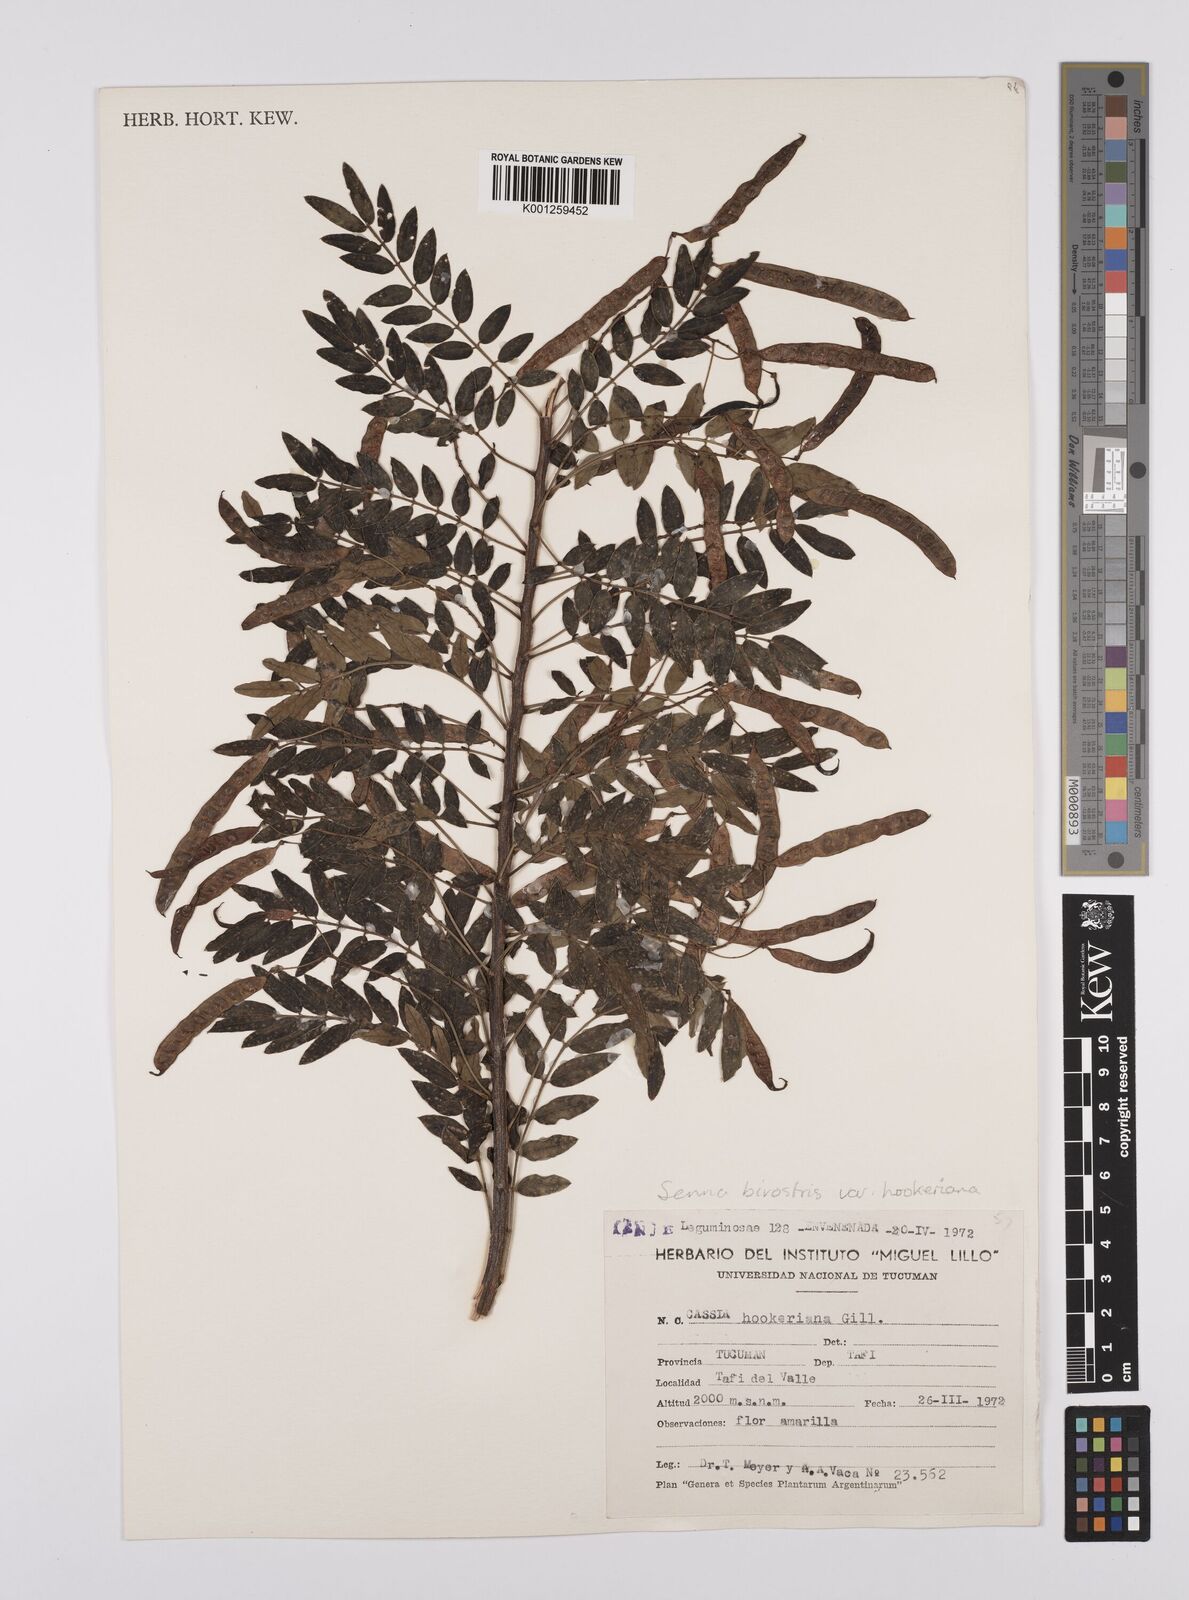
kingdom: Plantae
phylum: Tracheophyta
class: Magnoliopsida
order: Fabales
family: Fabaceae
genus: Senna
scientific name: Senna birostris
